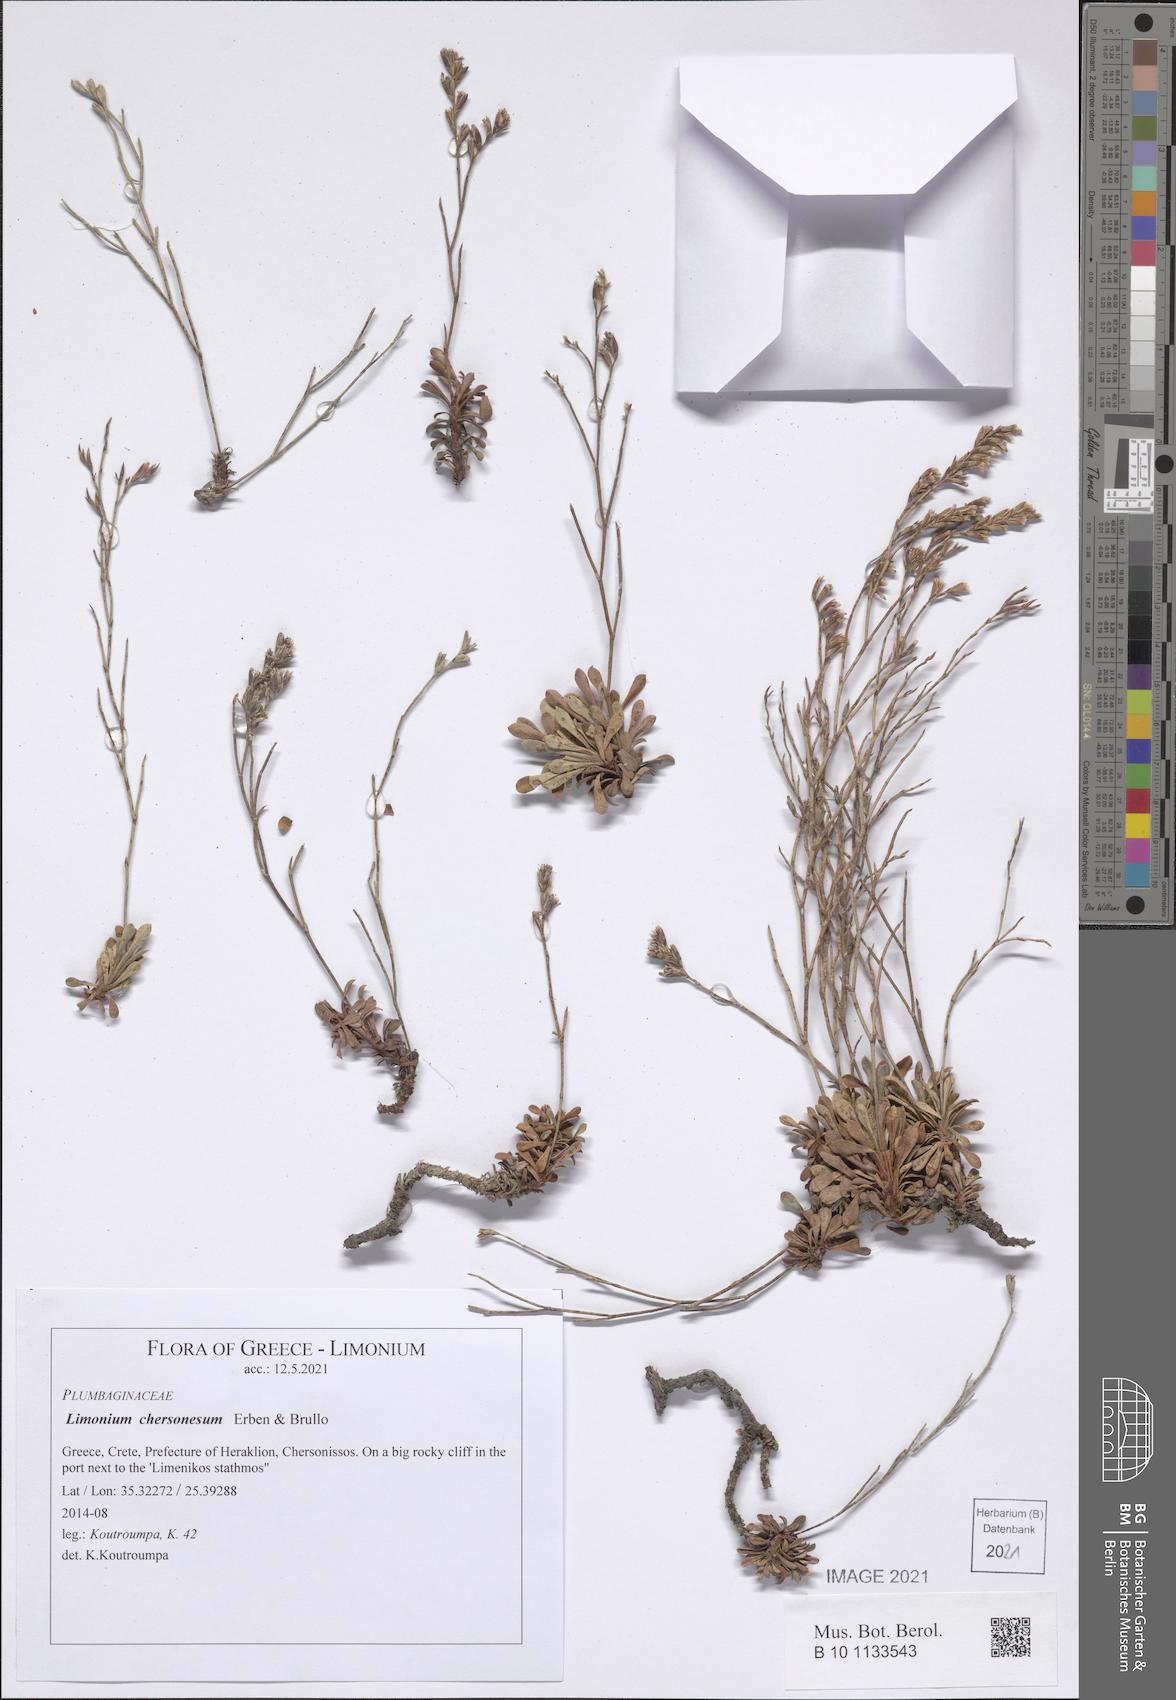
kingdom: Plantae
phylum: Tracheophyta
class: Magnoliopsida
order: Caryophyllales
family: Plumbaginaceae
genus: Limonium
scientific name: Limonium chersonesum
